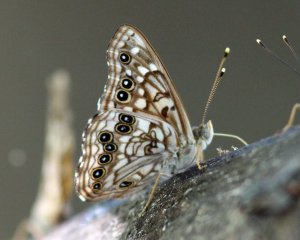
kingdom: Animalia
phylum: Arthropoda
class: Insecta
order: Lepidoptera
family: Nymphalidae
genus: Asterocampa
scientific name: Asterocampa celtis
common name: Hackberry Emperor
